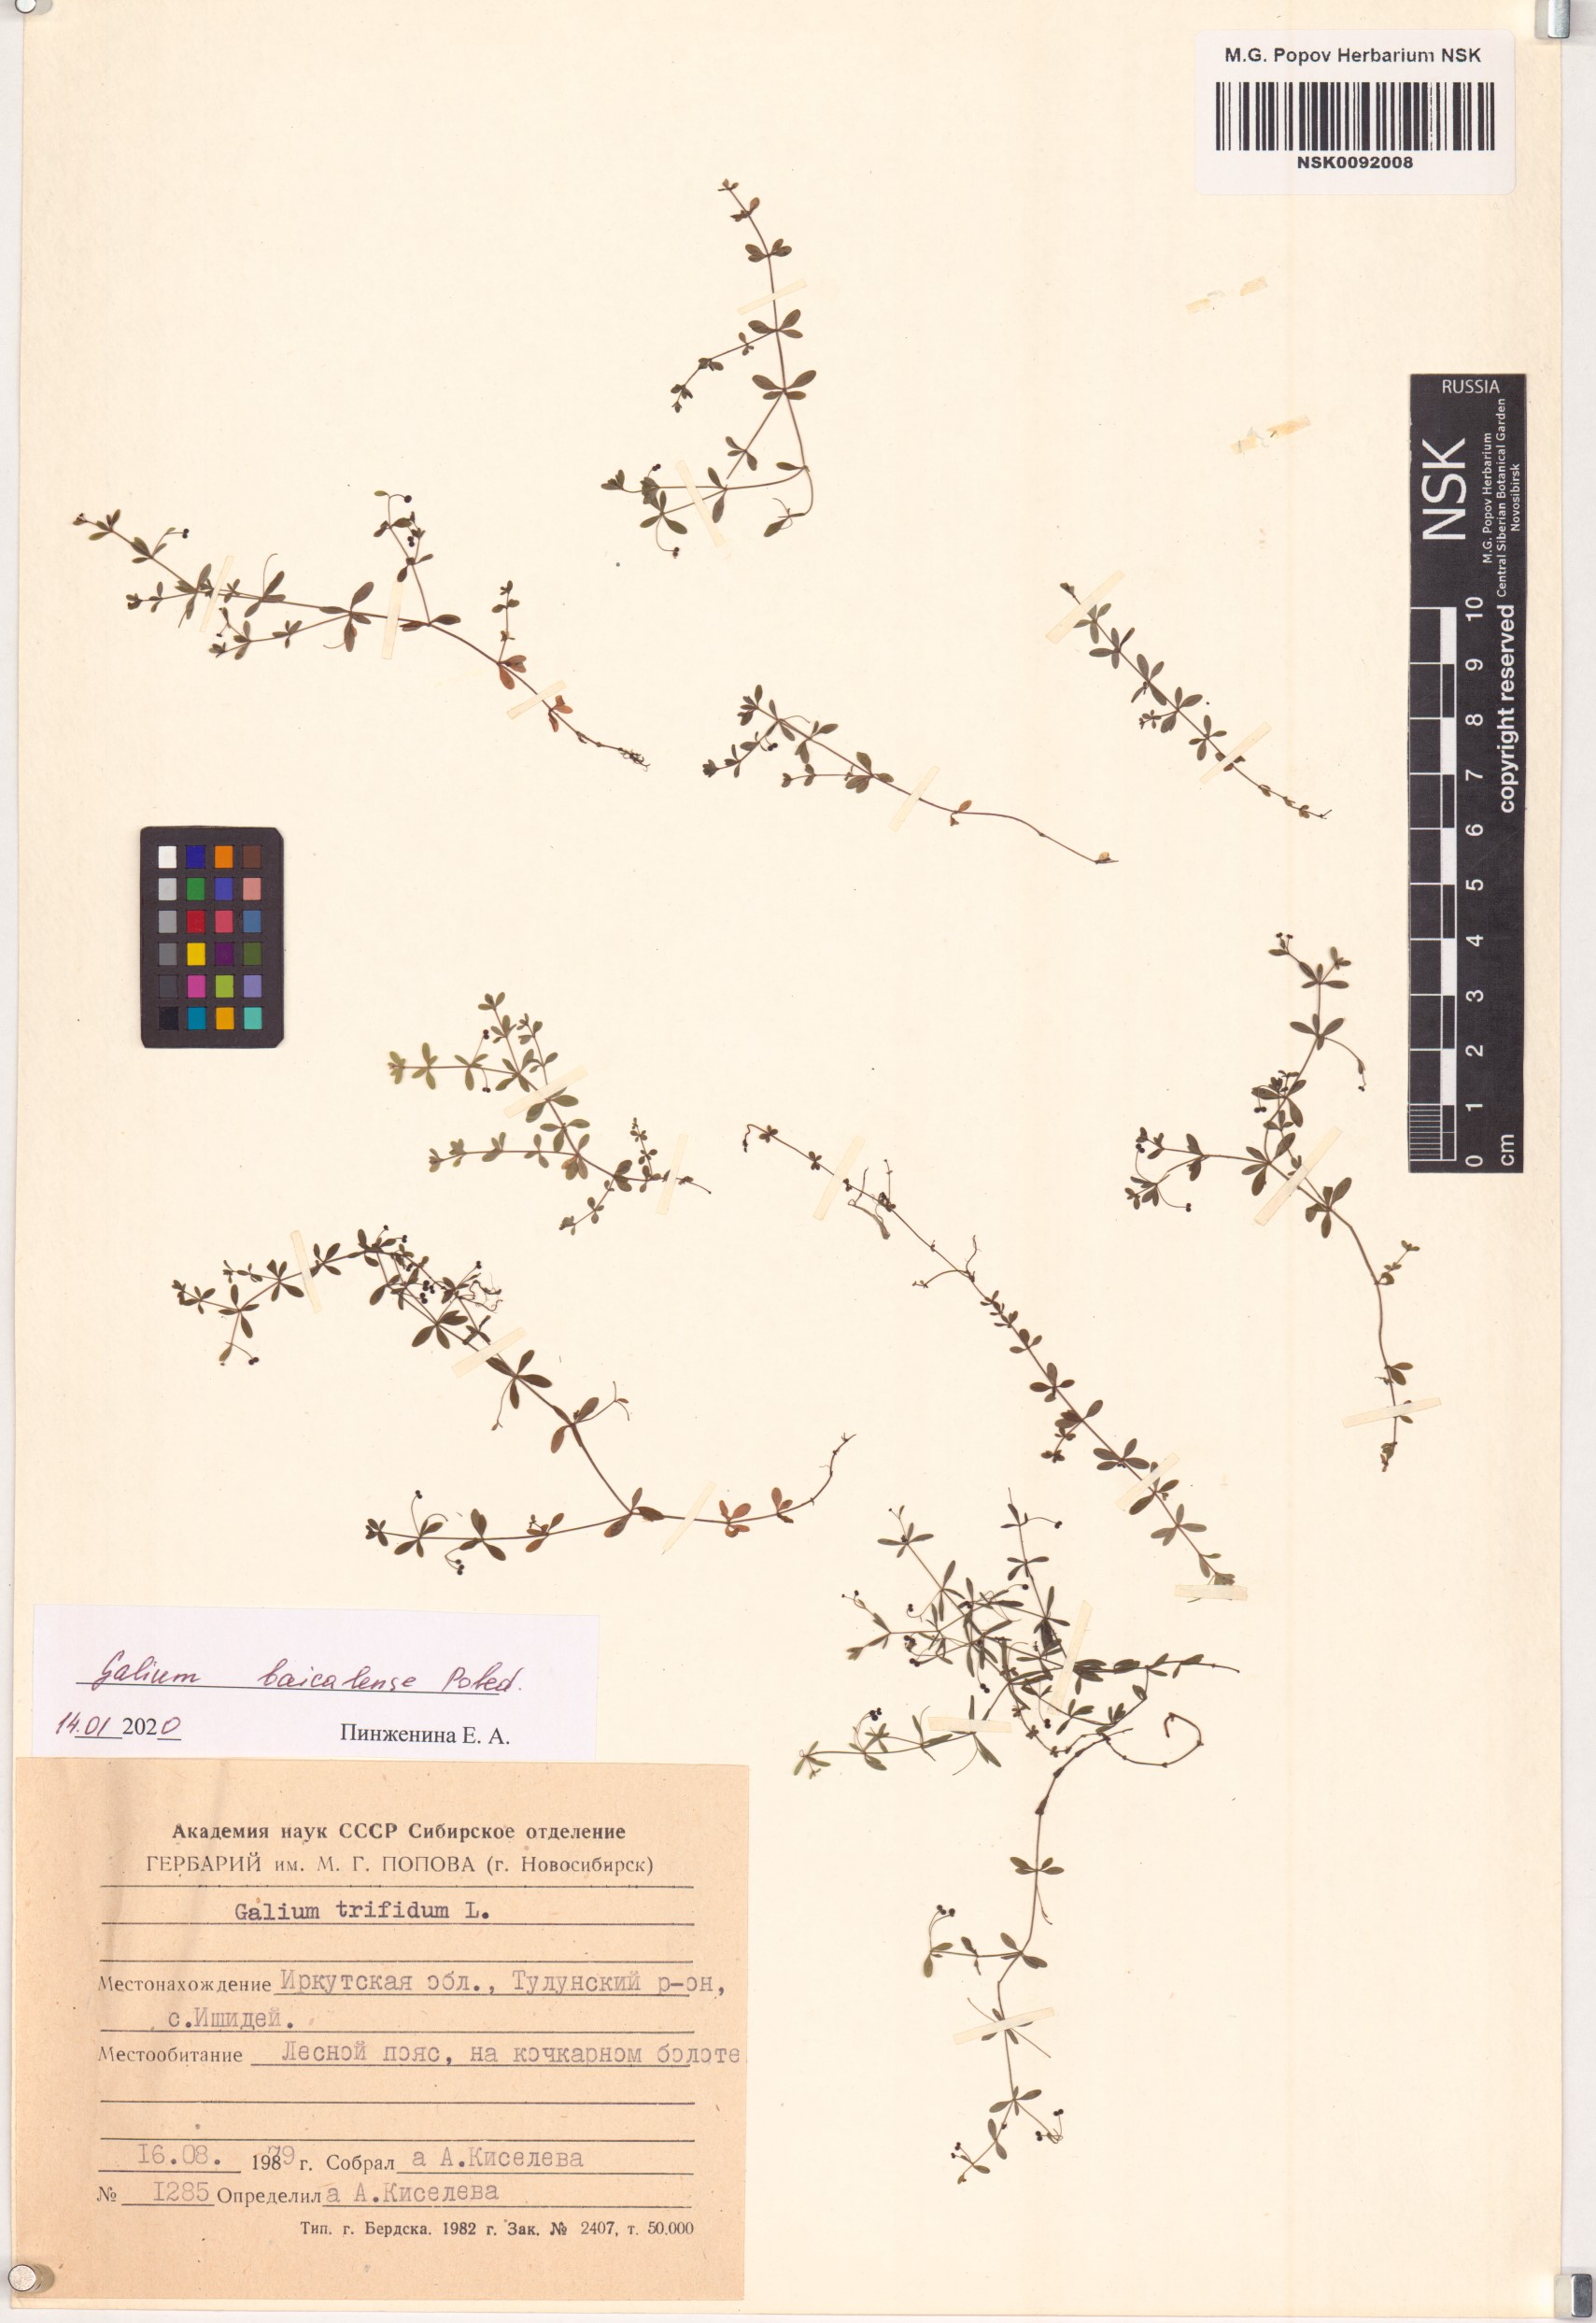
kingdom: Plantae
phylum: Tracheophyta
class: Magnoliopsida
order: Gentianales
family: Rubiaceae
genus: Galium
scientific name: Galium trifidum
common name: Small bedstraw
